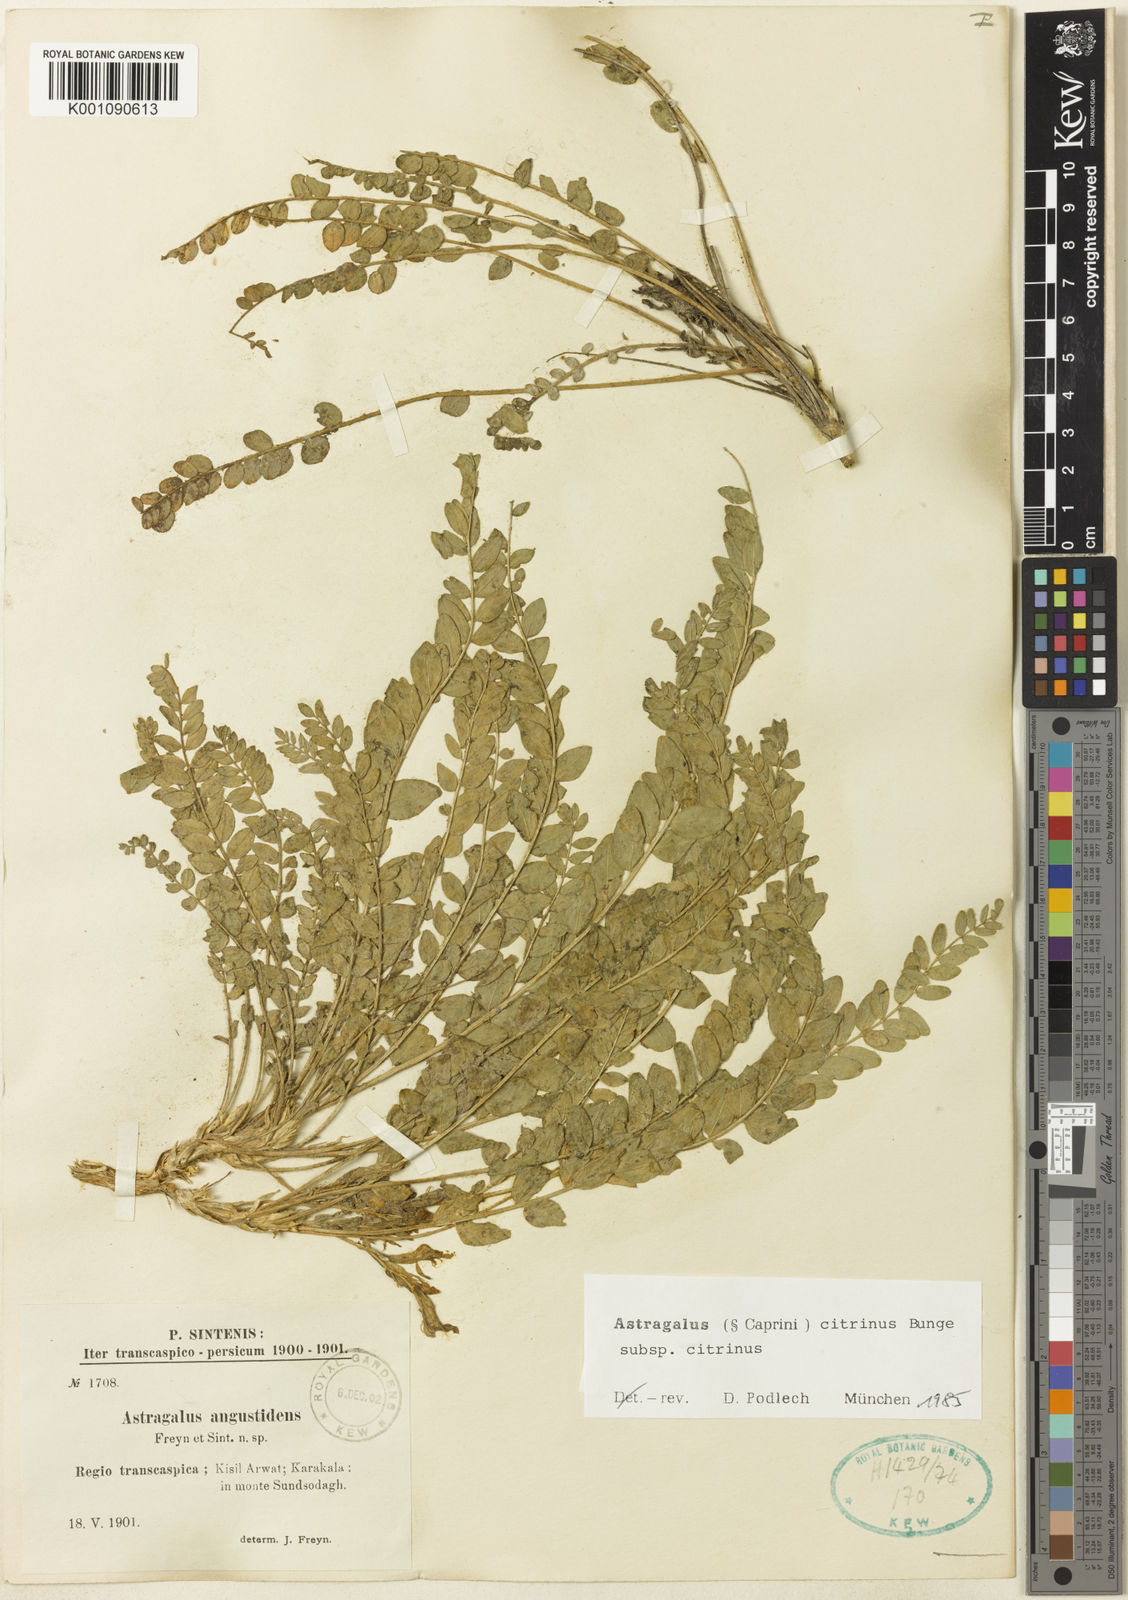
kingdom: Plantae
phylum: Tracheophyta
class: Magnoliopsida
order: Fabales
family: Fabaceae
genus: Astragalus
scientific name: Astragalus citrinus
